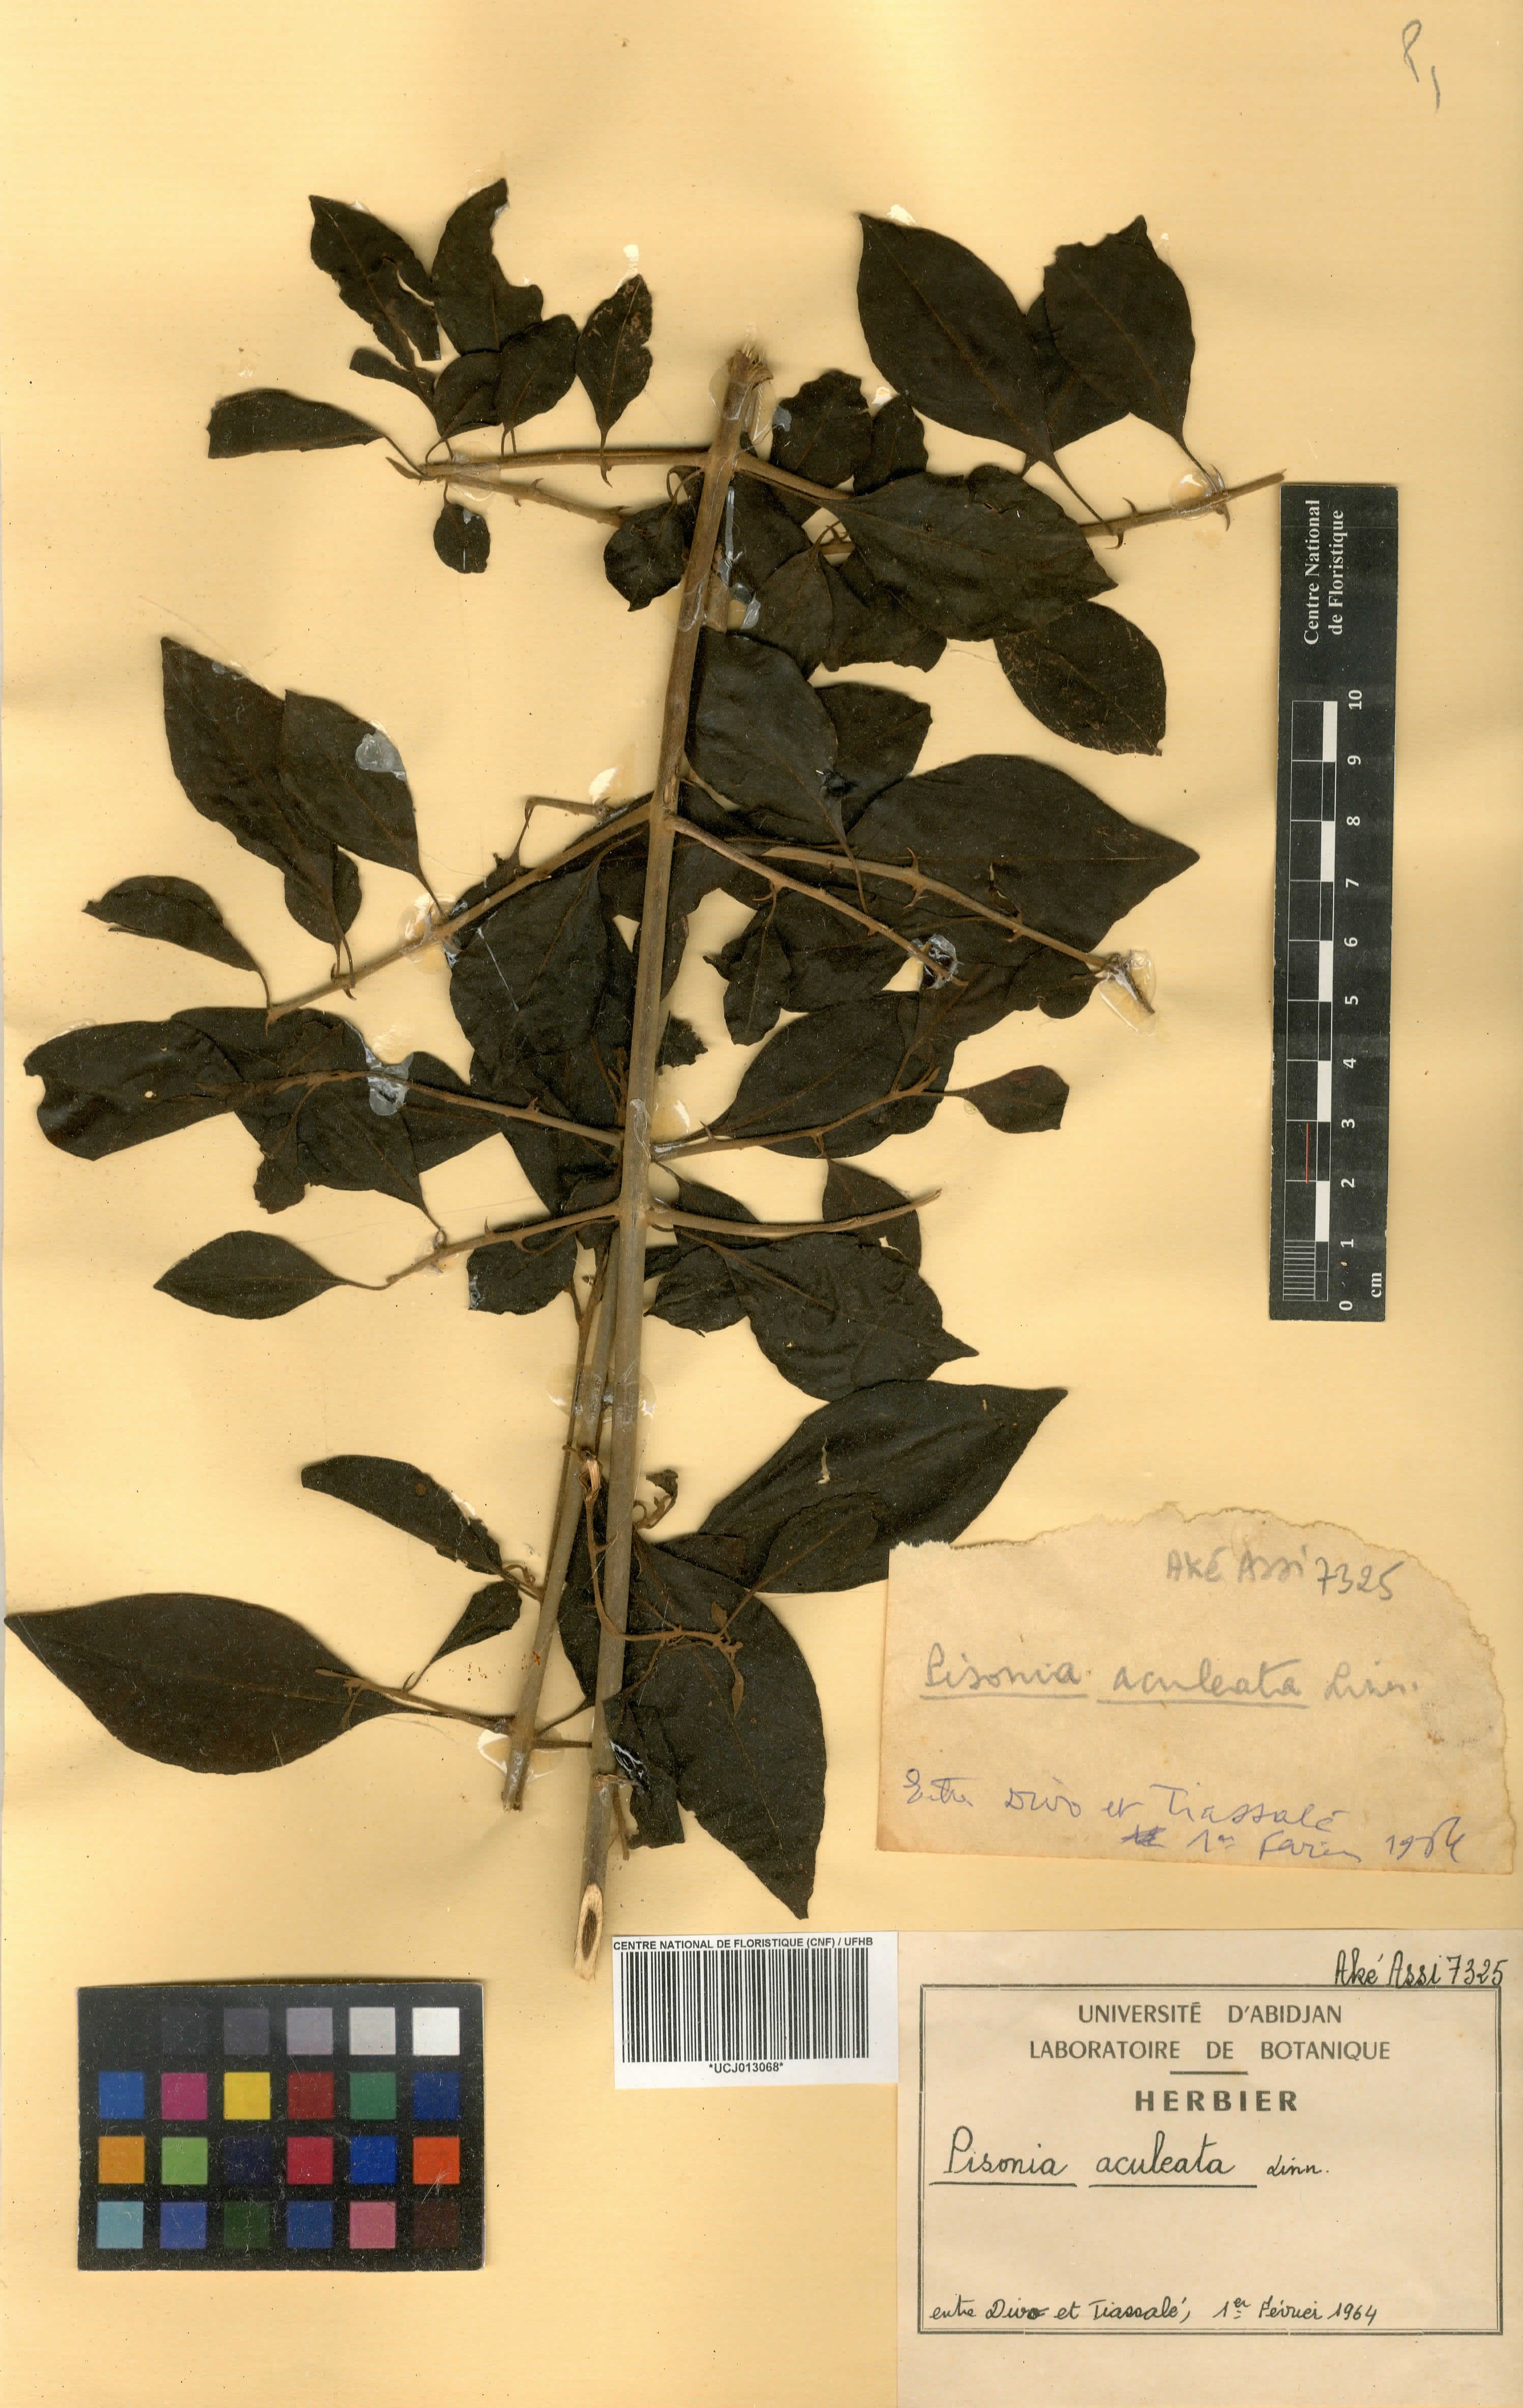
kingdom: Plantae
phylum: Tracheophyta
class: Magnoliopsida
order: Caryophyllales
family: Nyctaginaceae
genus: Pisonia
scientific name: Pisonia aculeata
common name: Cockspur vine
